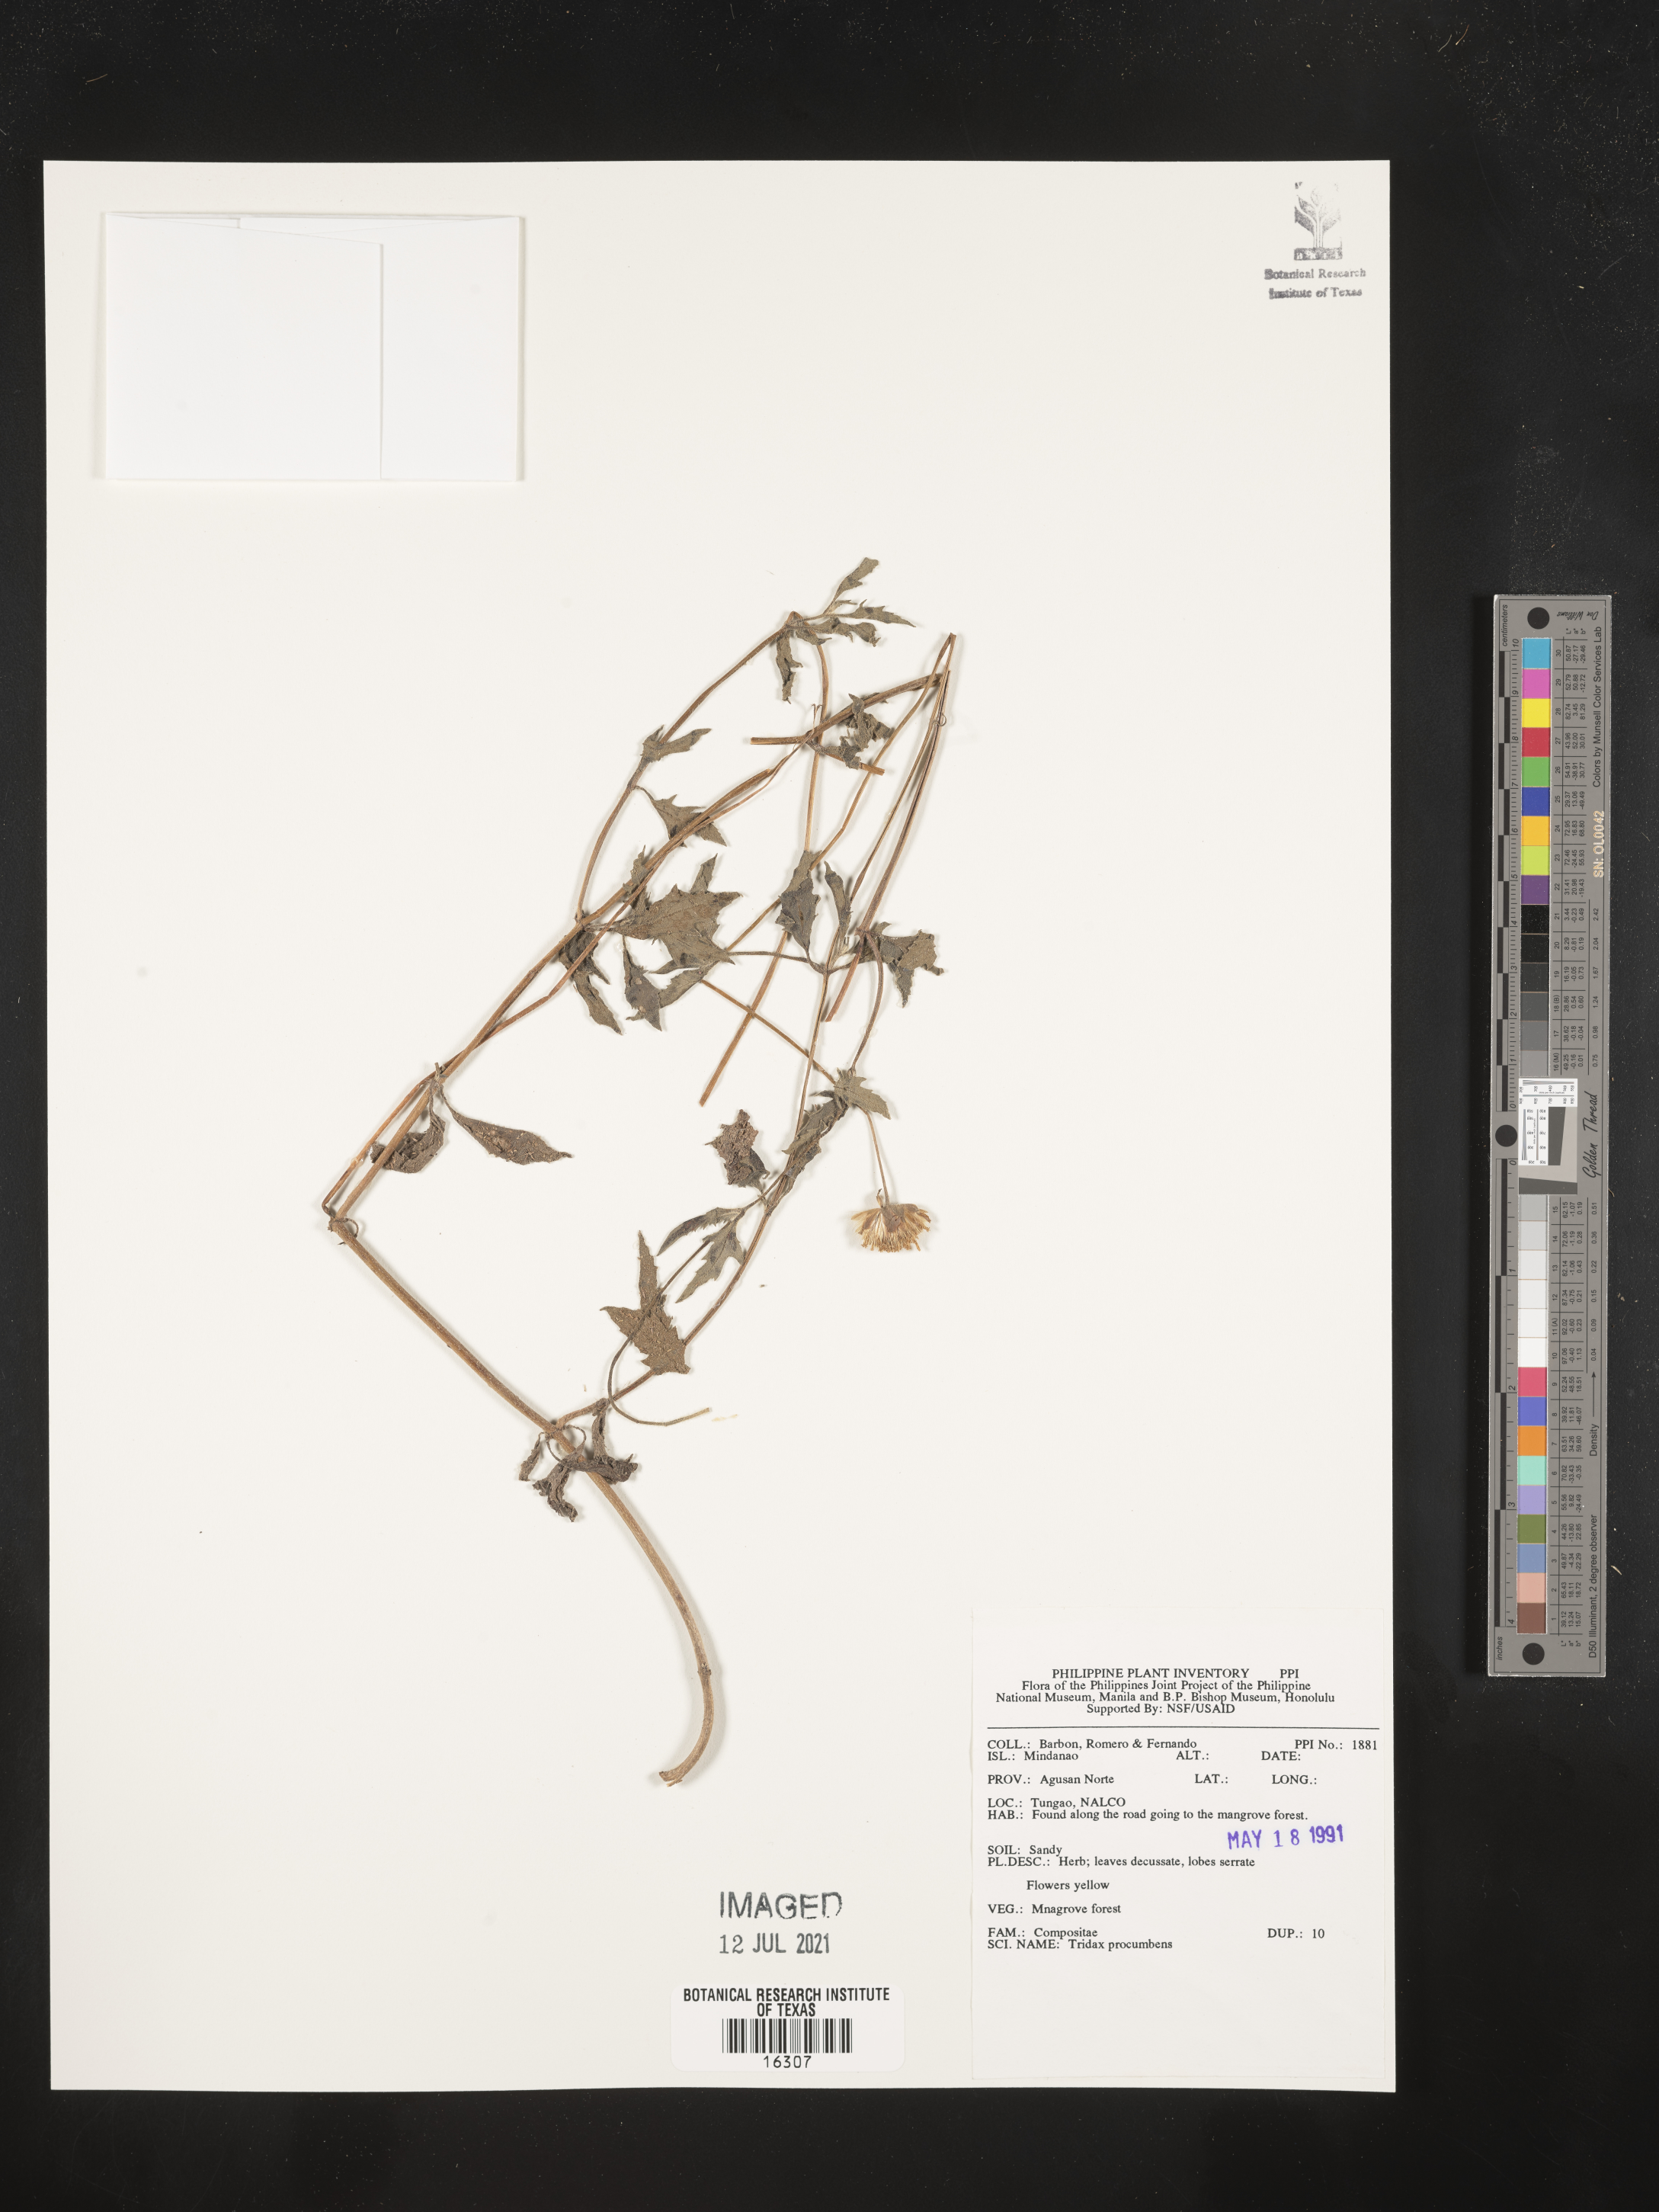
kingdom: Plantae
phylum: Tracheophyta
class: Magnoliopsida
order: Asterales
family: Asteraceae
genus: Tridax
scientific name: Tridax procumbens
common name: Coatbuttons
